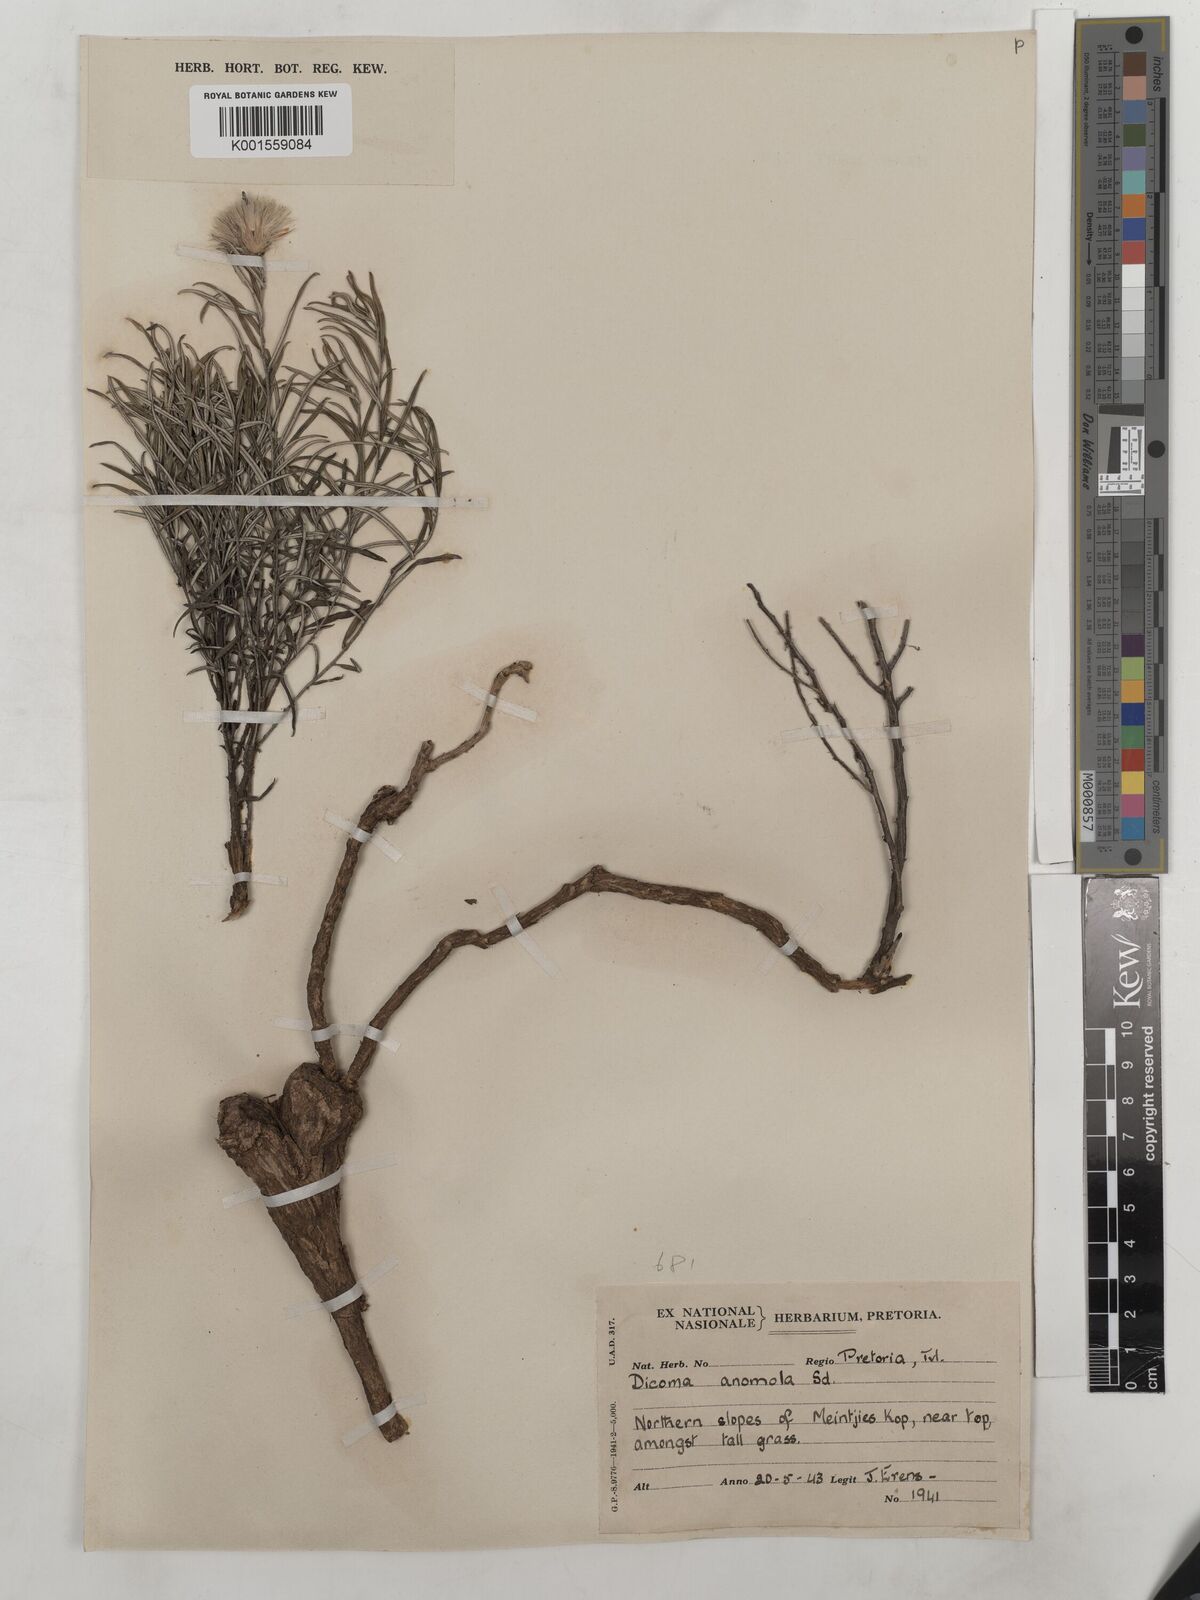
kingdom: Plantae
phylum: Tracheophyta
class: Magnoliopsida
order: Asterales
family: Asteraceae
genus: Dicoma
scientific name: Dicoma anomala
